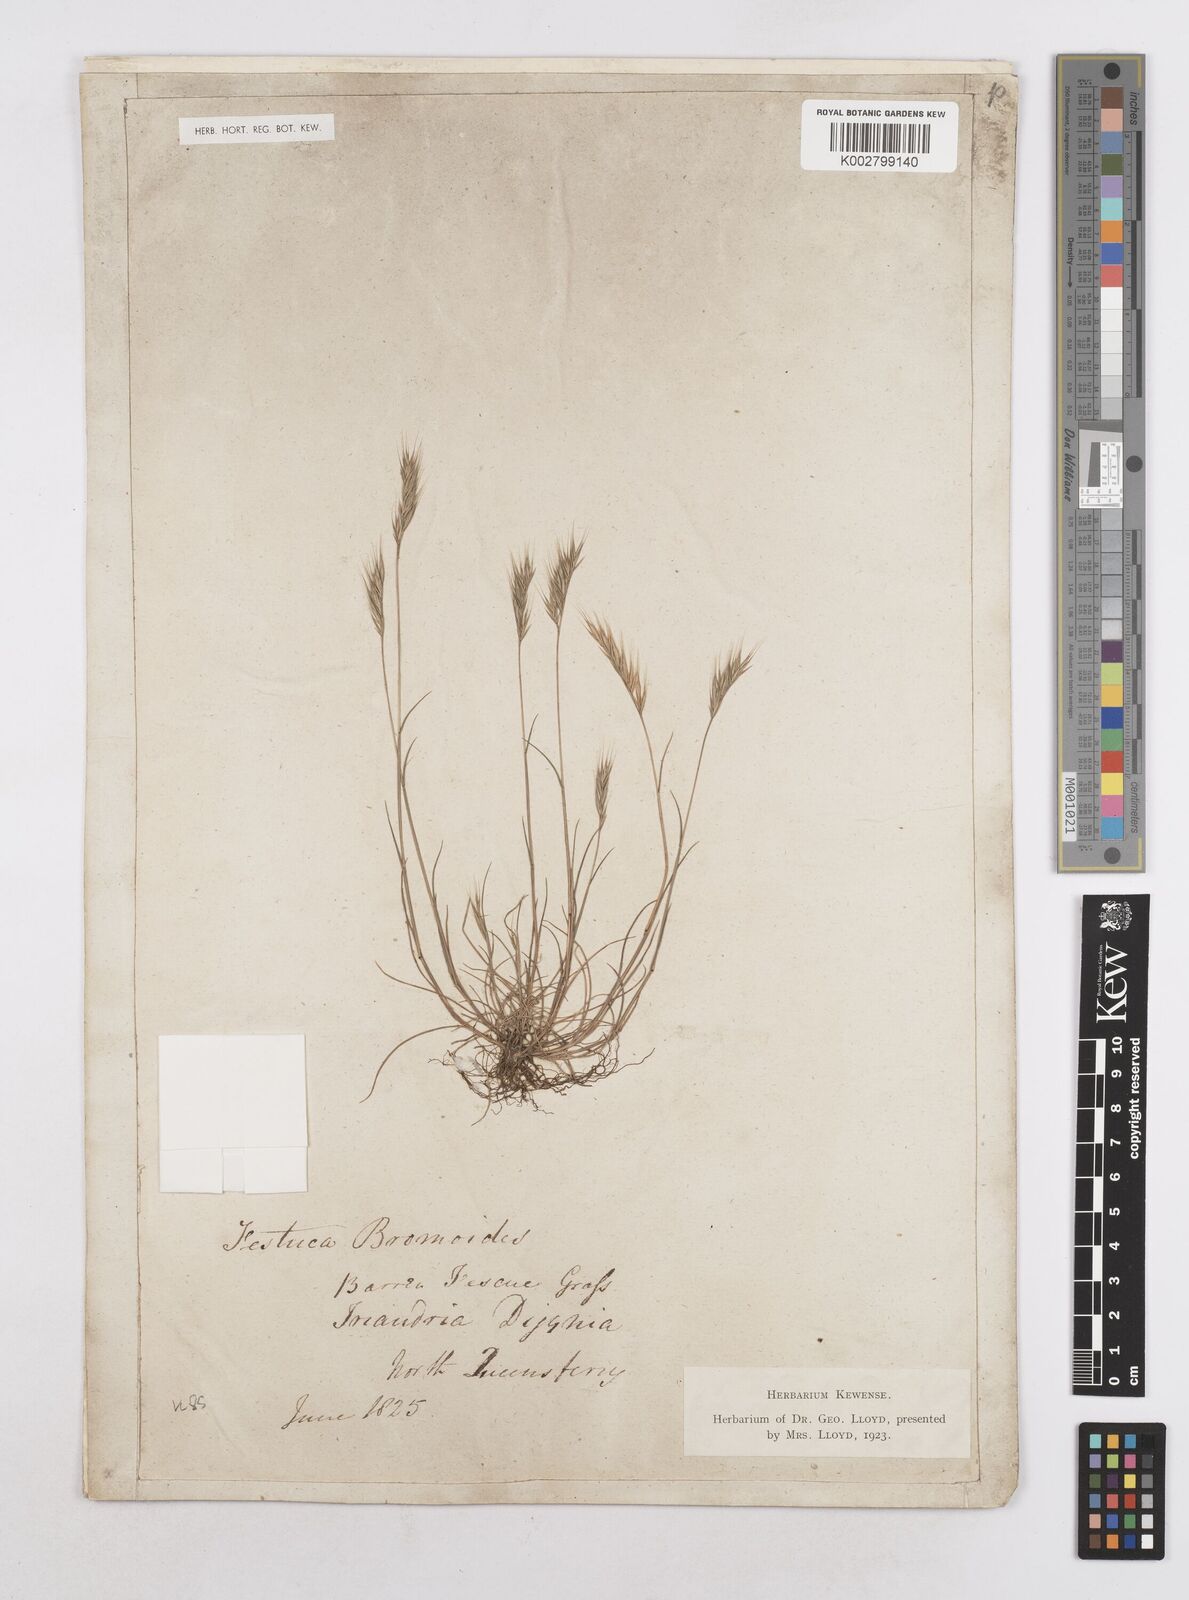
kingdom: Plantae
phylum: Tracheophyta
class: Liliopsida
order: Poales
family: Poaceae
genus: Festuca
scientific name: Festuca bromoides
